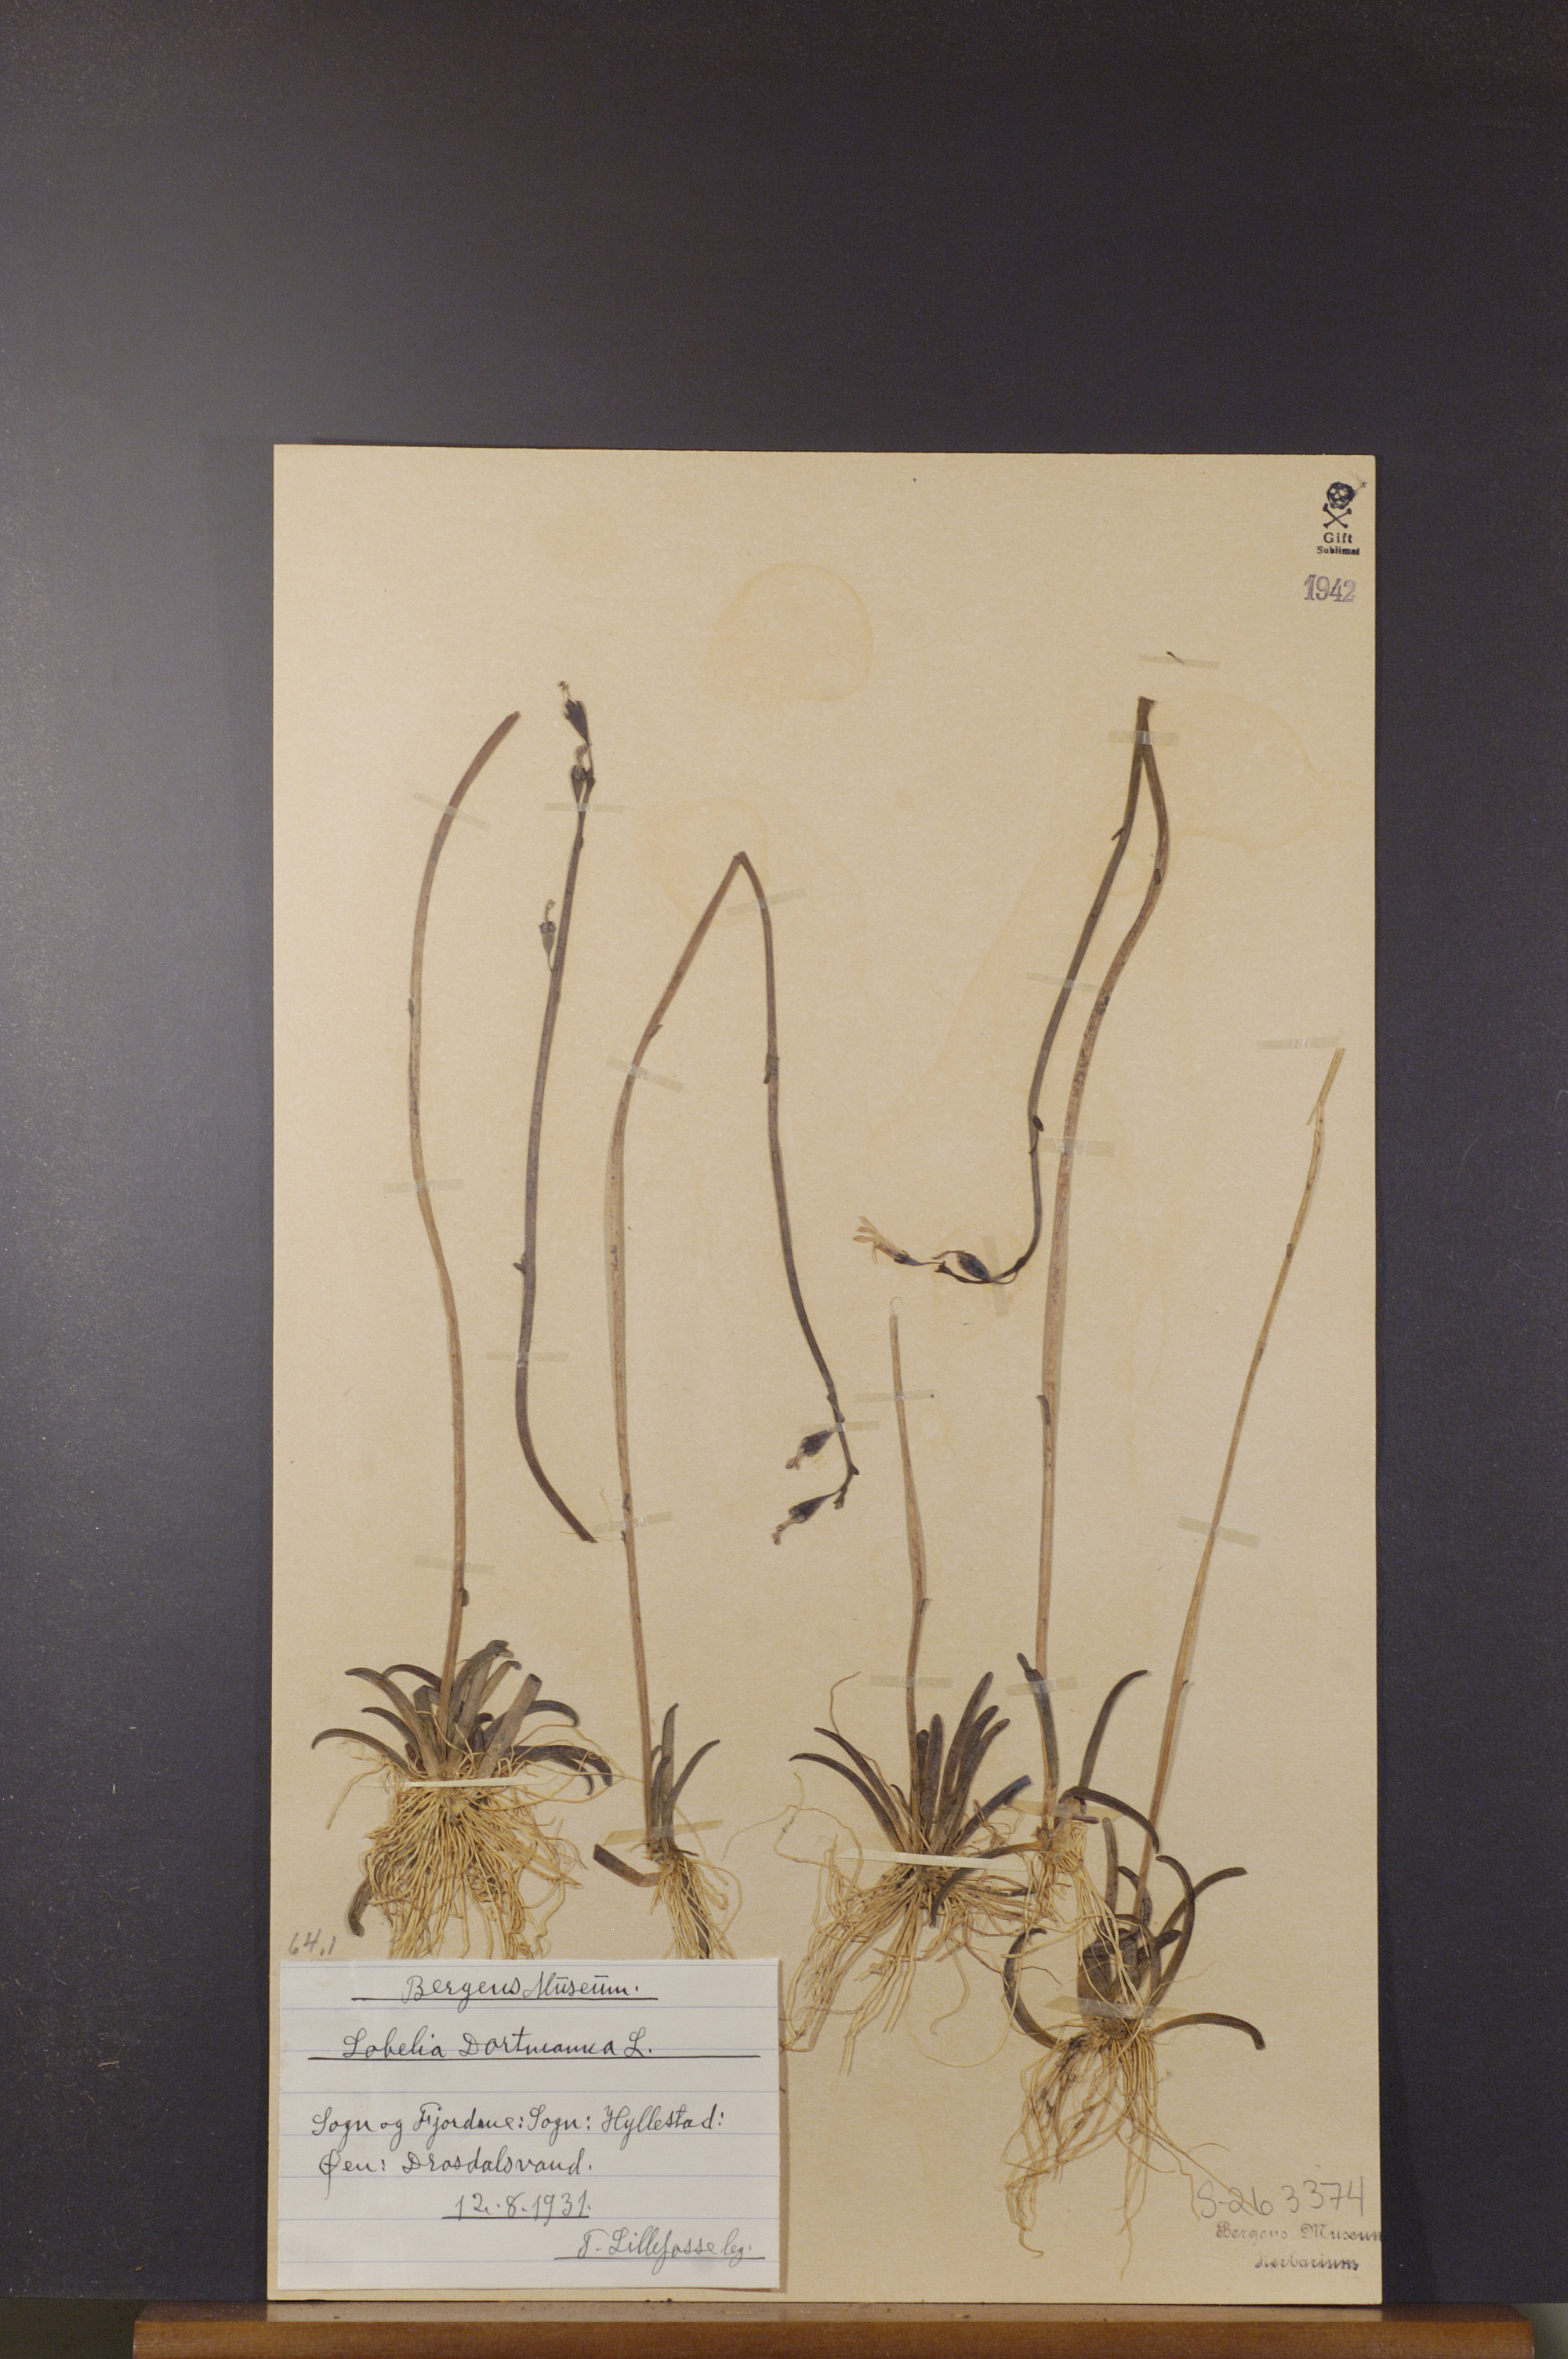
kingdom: Plantae
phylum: Tracheophyta
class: Magnoliopsida
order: Asterales
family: Campanulaceae
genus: Lobelia
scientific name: Lobelia dortmanna
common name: Water lobelia
